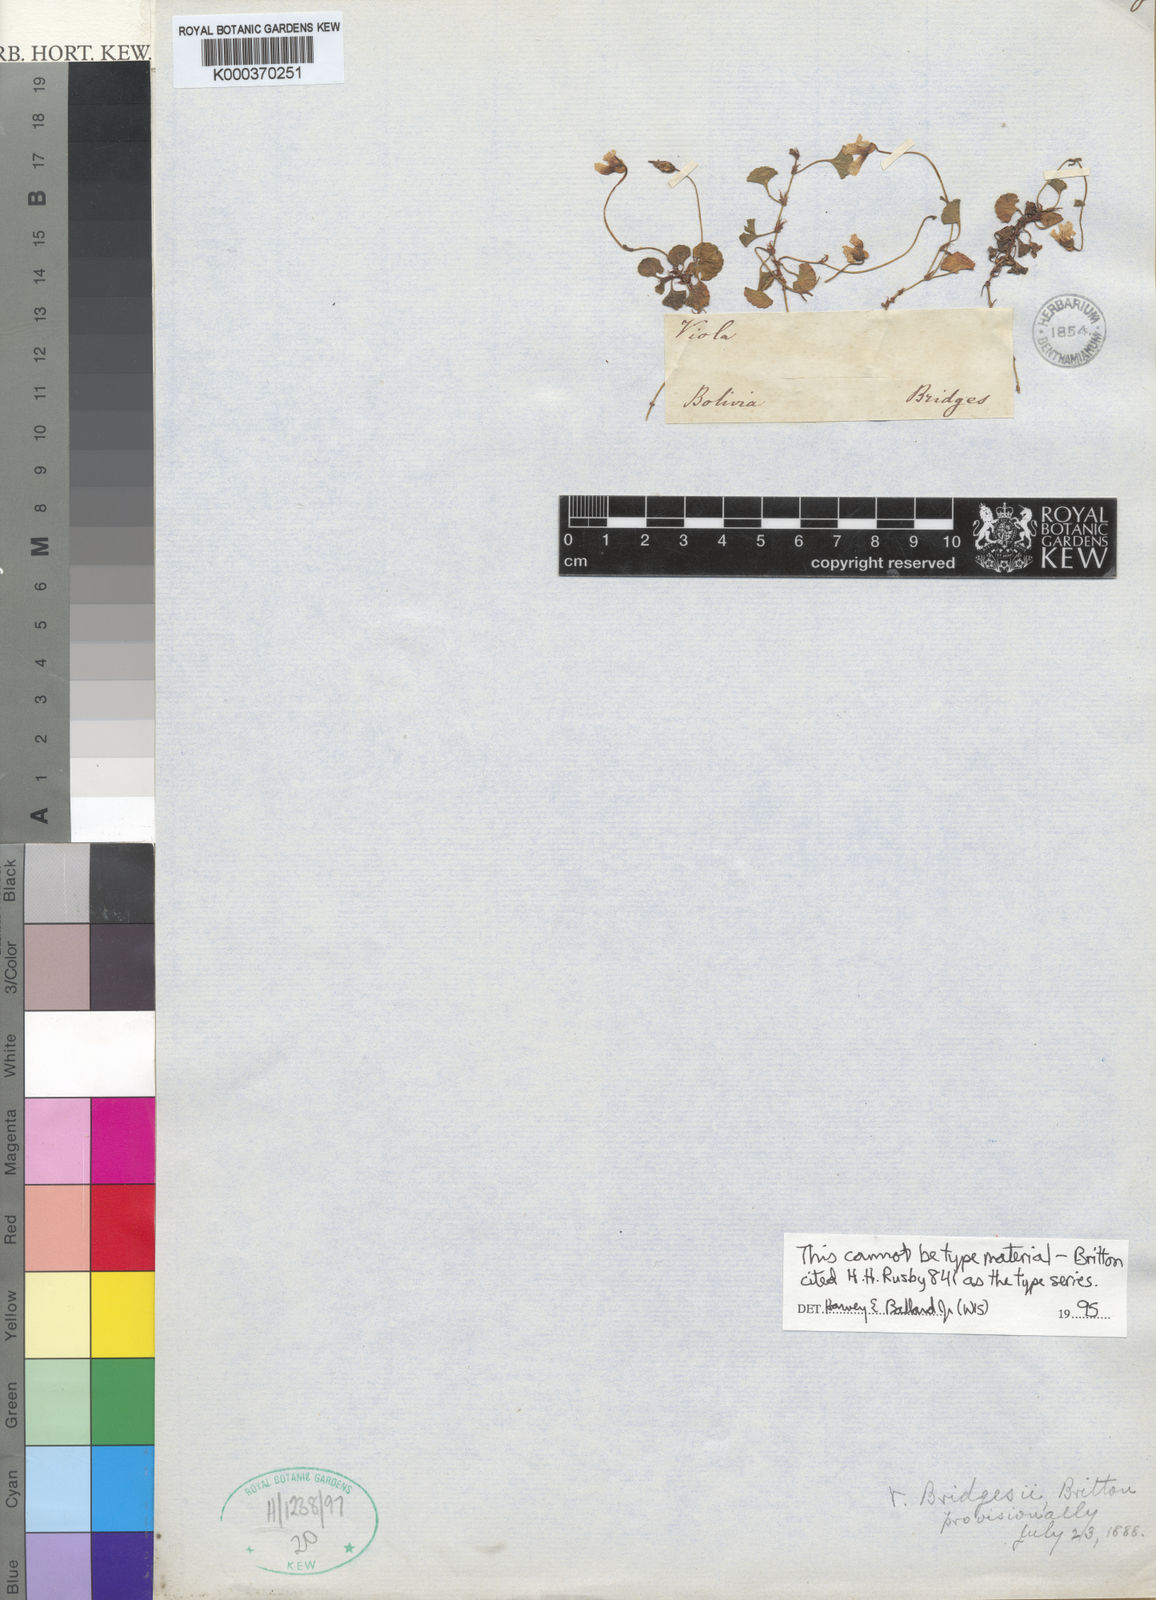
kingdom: Plantae
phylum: Tracheophyta
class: Magnoliopsida
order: Malpighiales
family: Violaceae
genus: Viola
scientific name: Viola bridgesii
